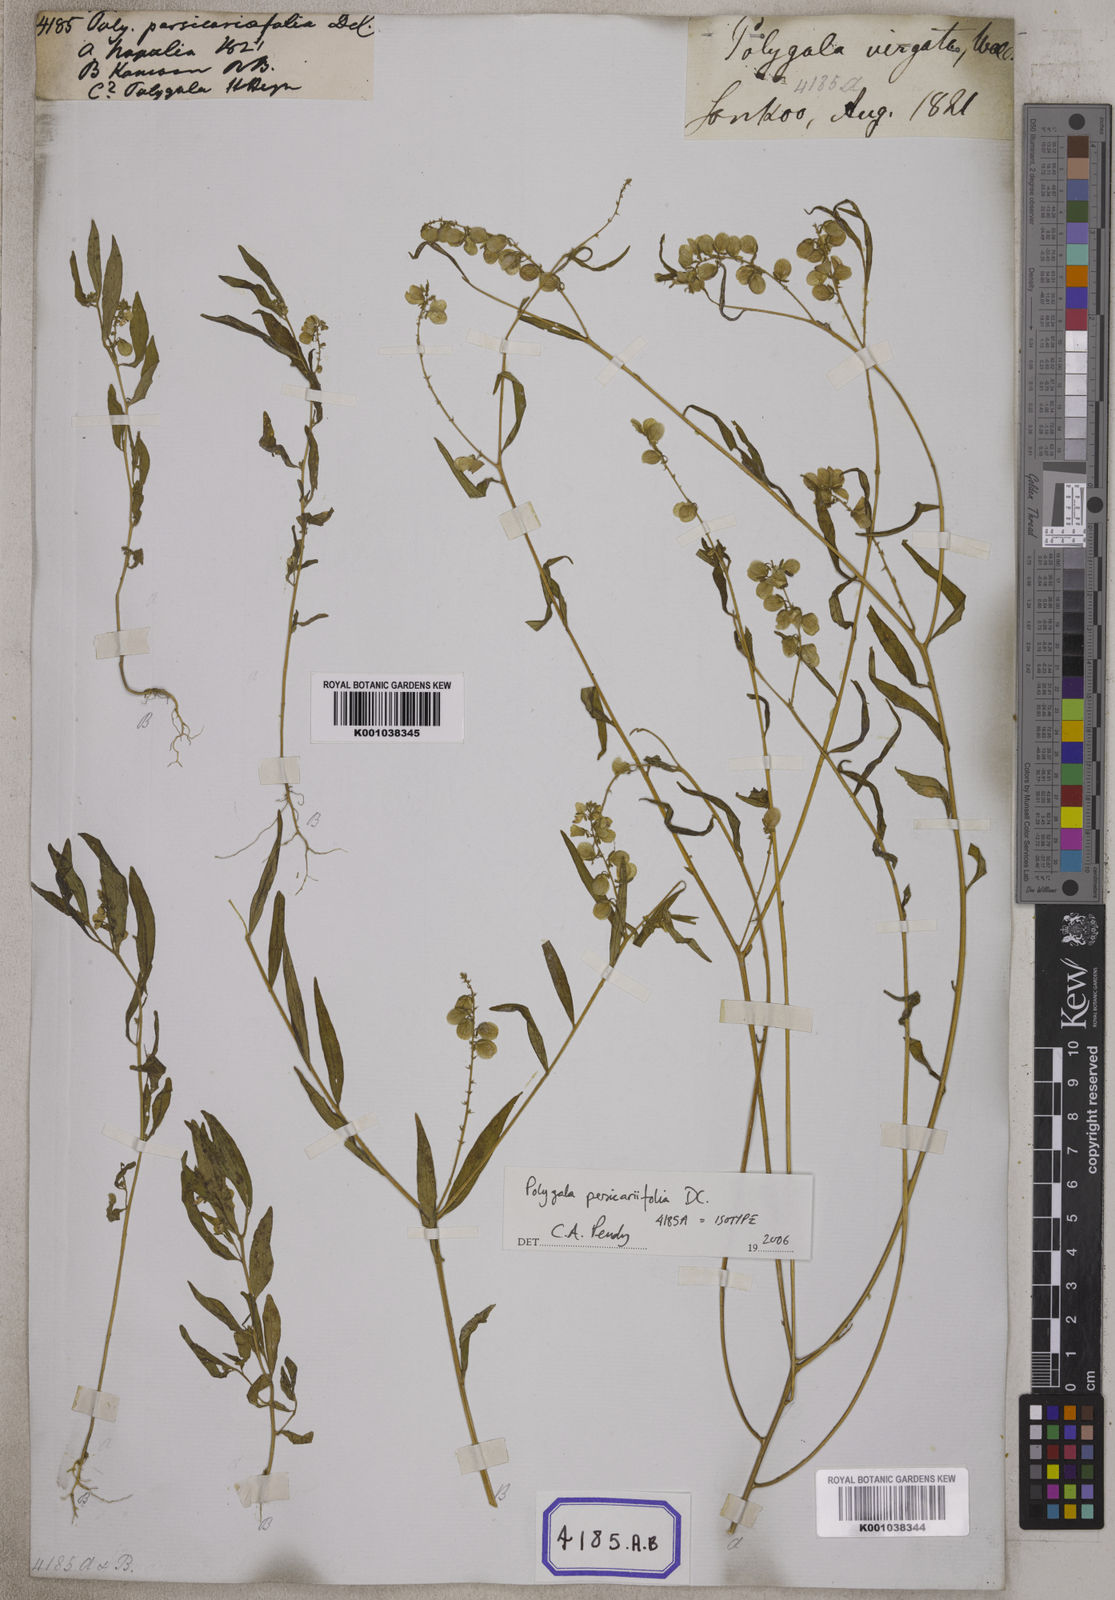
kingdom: Plantae
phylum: Tracheophyta
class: Magnoliopsida
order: Fabales
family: Polygalaceae
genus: Polygala
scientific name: Polygala
